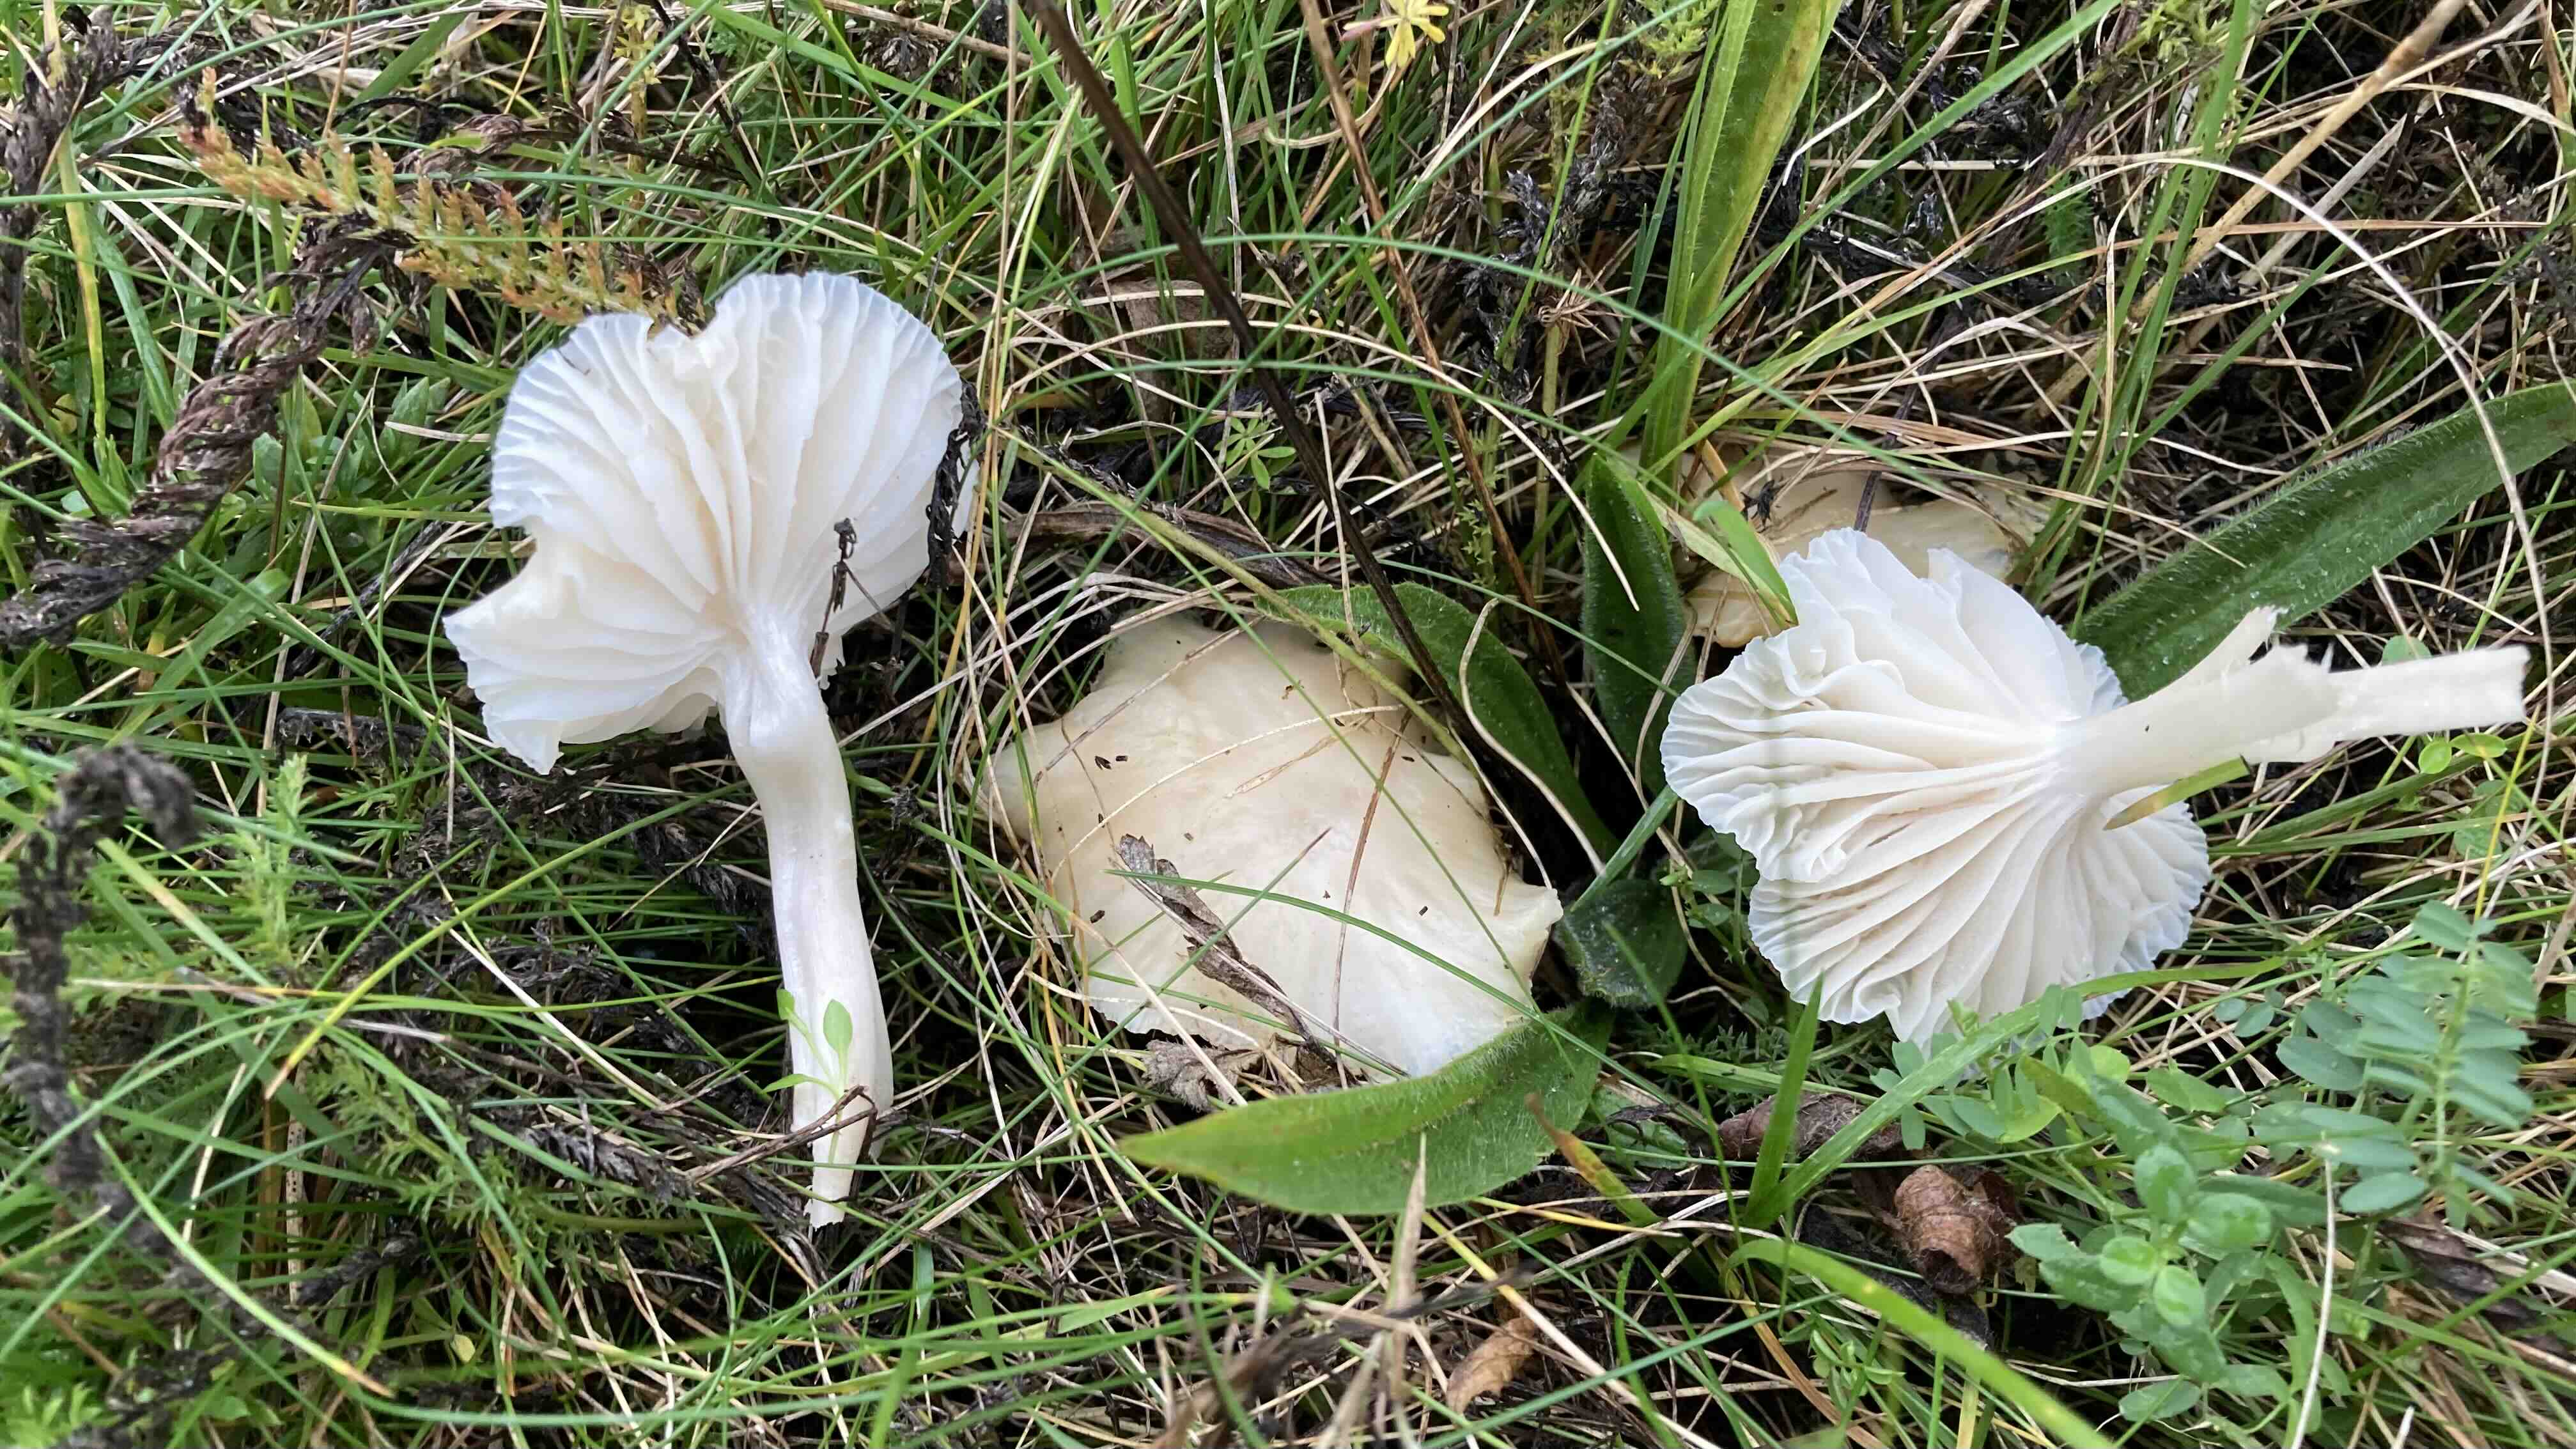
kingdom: Fungi
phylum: Basidiomycota
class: Agaricomycetes
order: Agaricales
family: Hygrophoraceae
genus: Cuphophyllus
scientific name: Cuphophyllus
